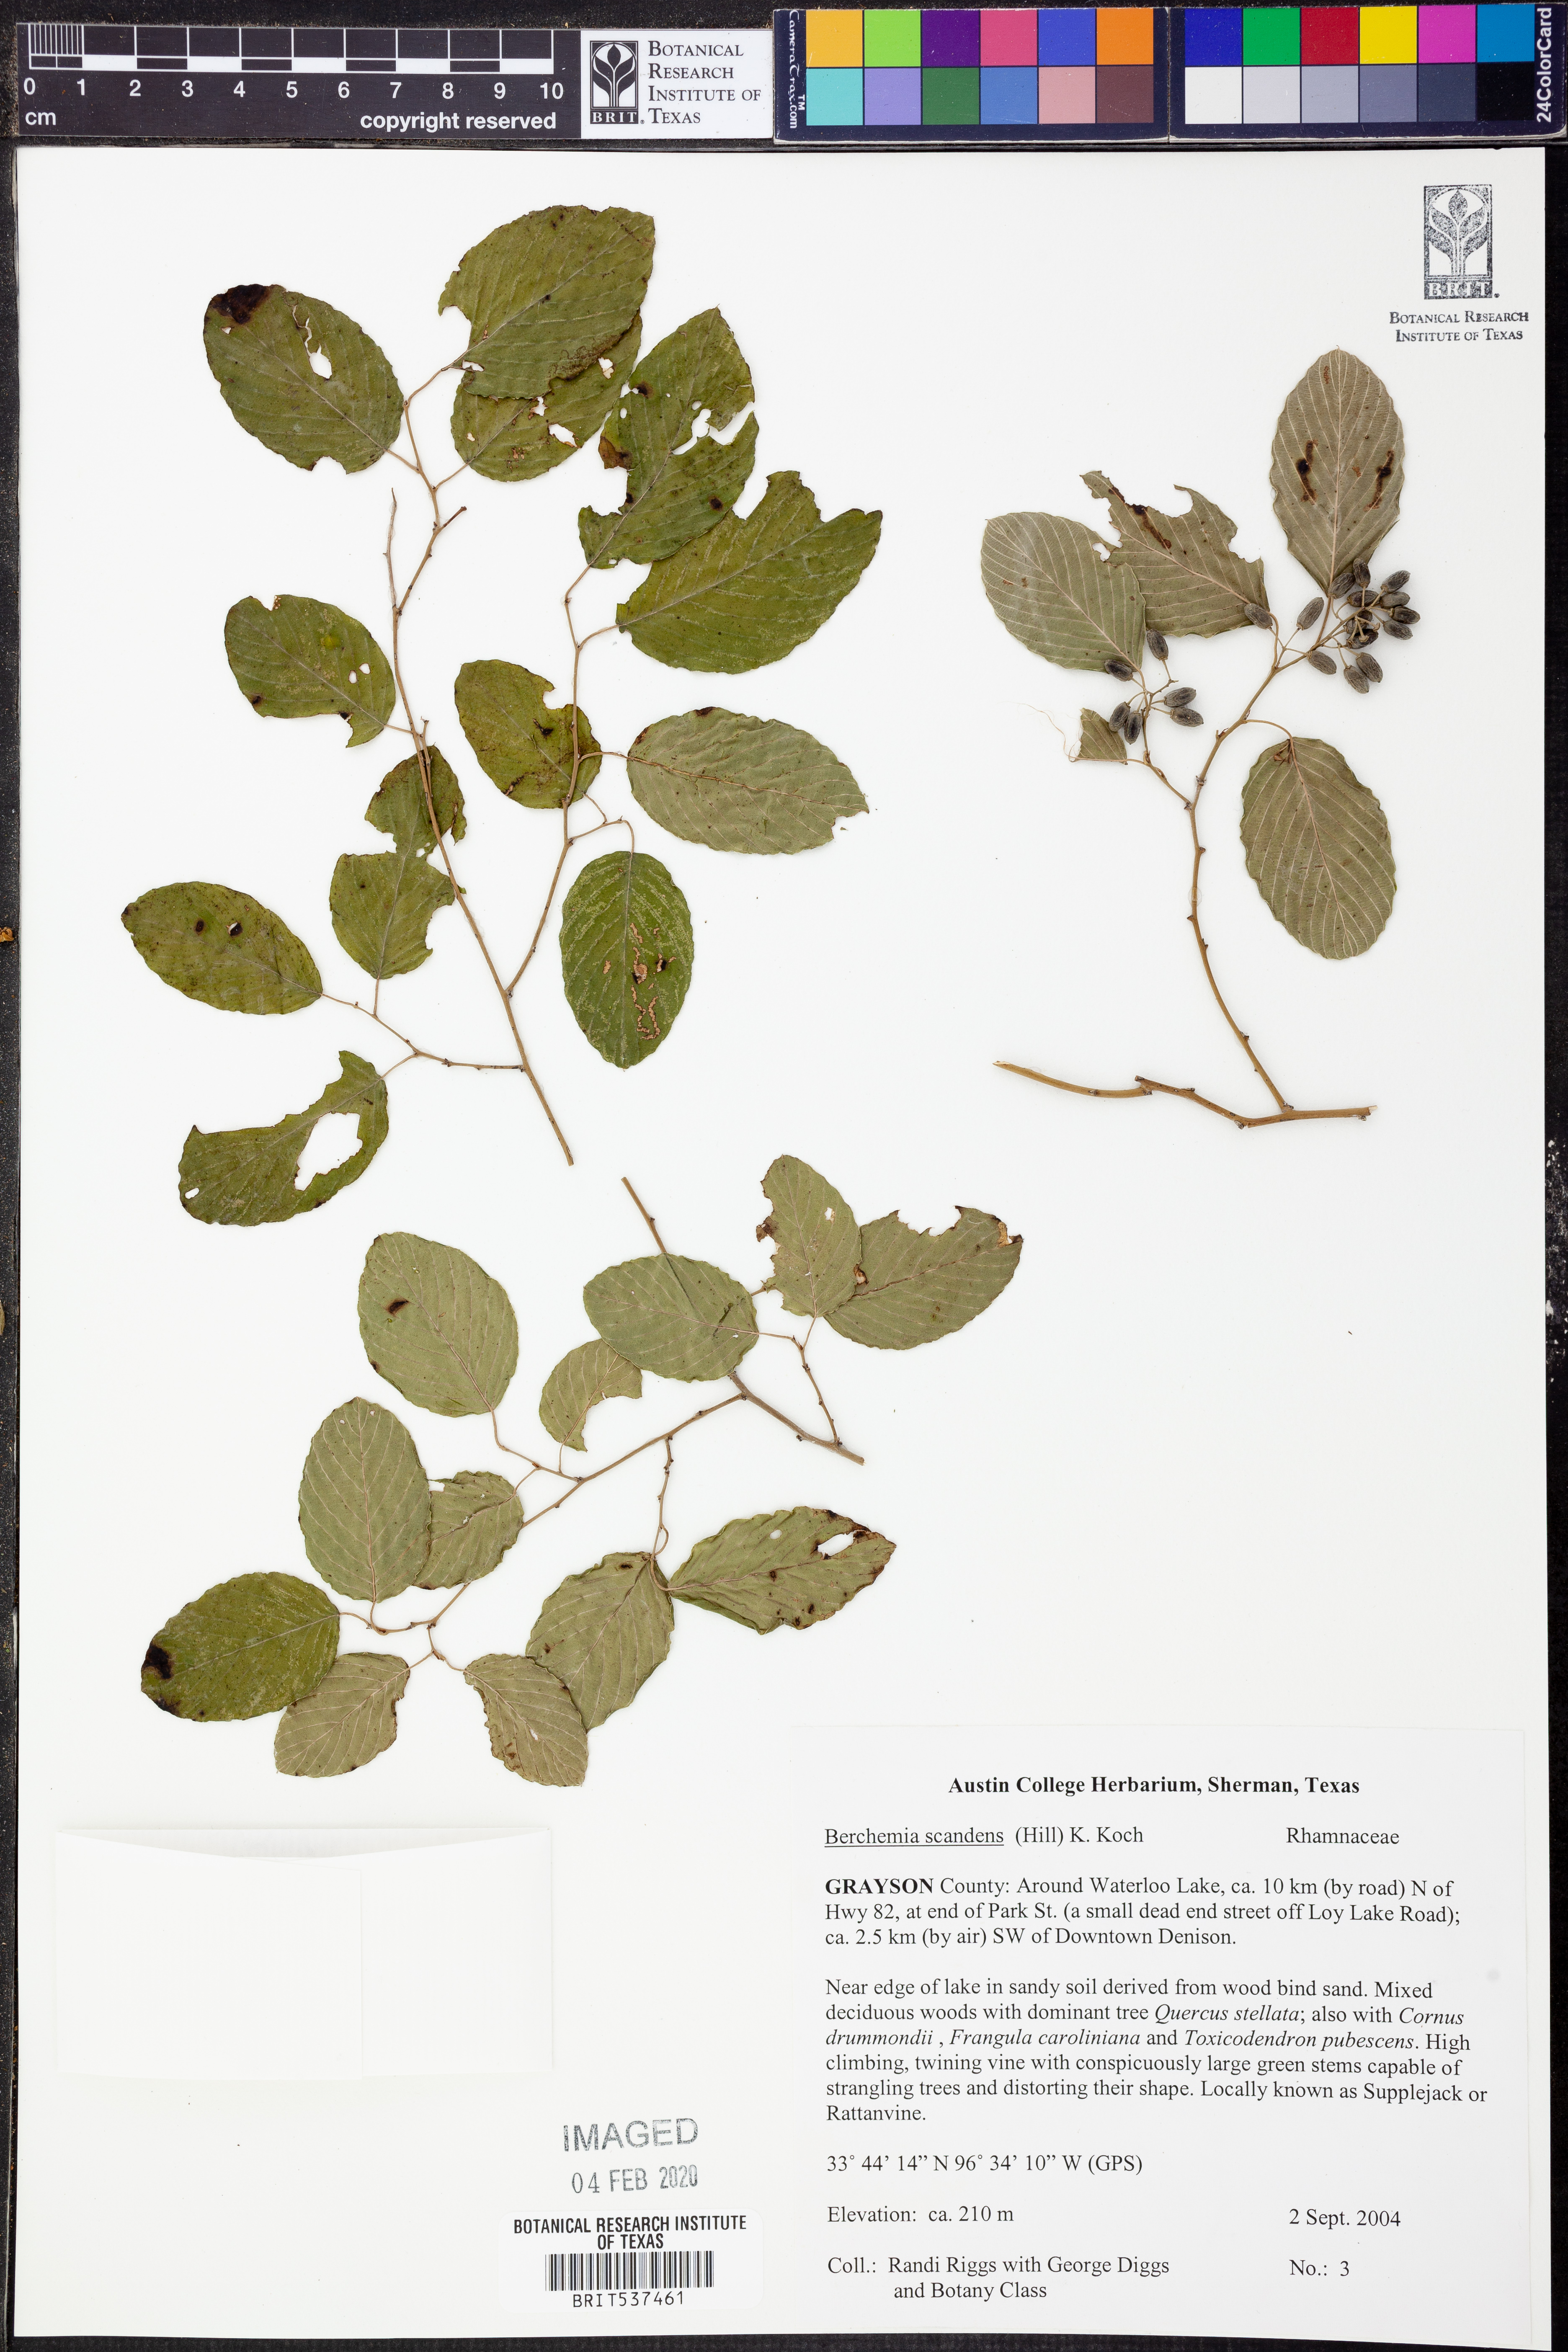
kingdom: Plantae
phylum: Tracheophyta
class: Magnoliopsida
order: Rosales
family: Rhamnaceae
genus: Berchemia
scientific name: Berchemia scandens
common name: Supplejack
